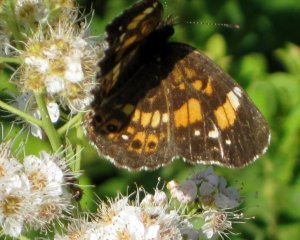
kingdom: Animalia
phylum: Arthropoda
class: Insecta
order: Lepidoptera
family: Nymphalidae
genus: Chlosyne
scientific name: Chlosyne nycteis
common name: Silvery Checkerspot
